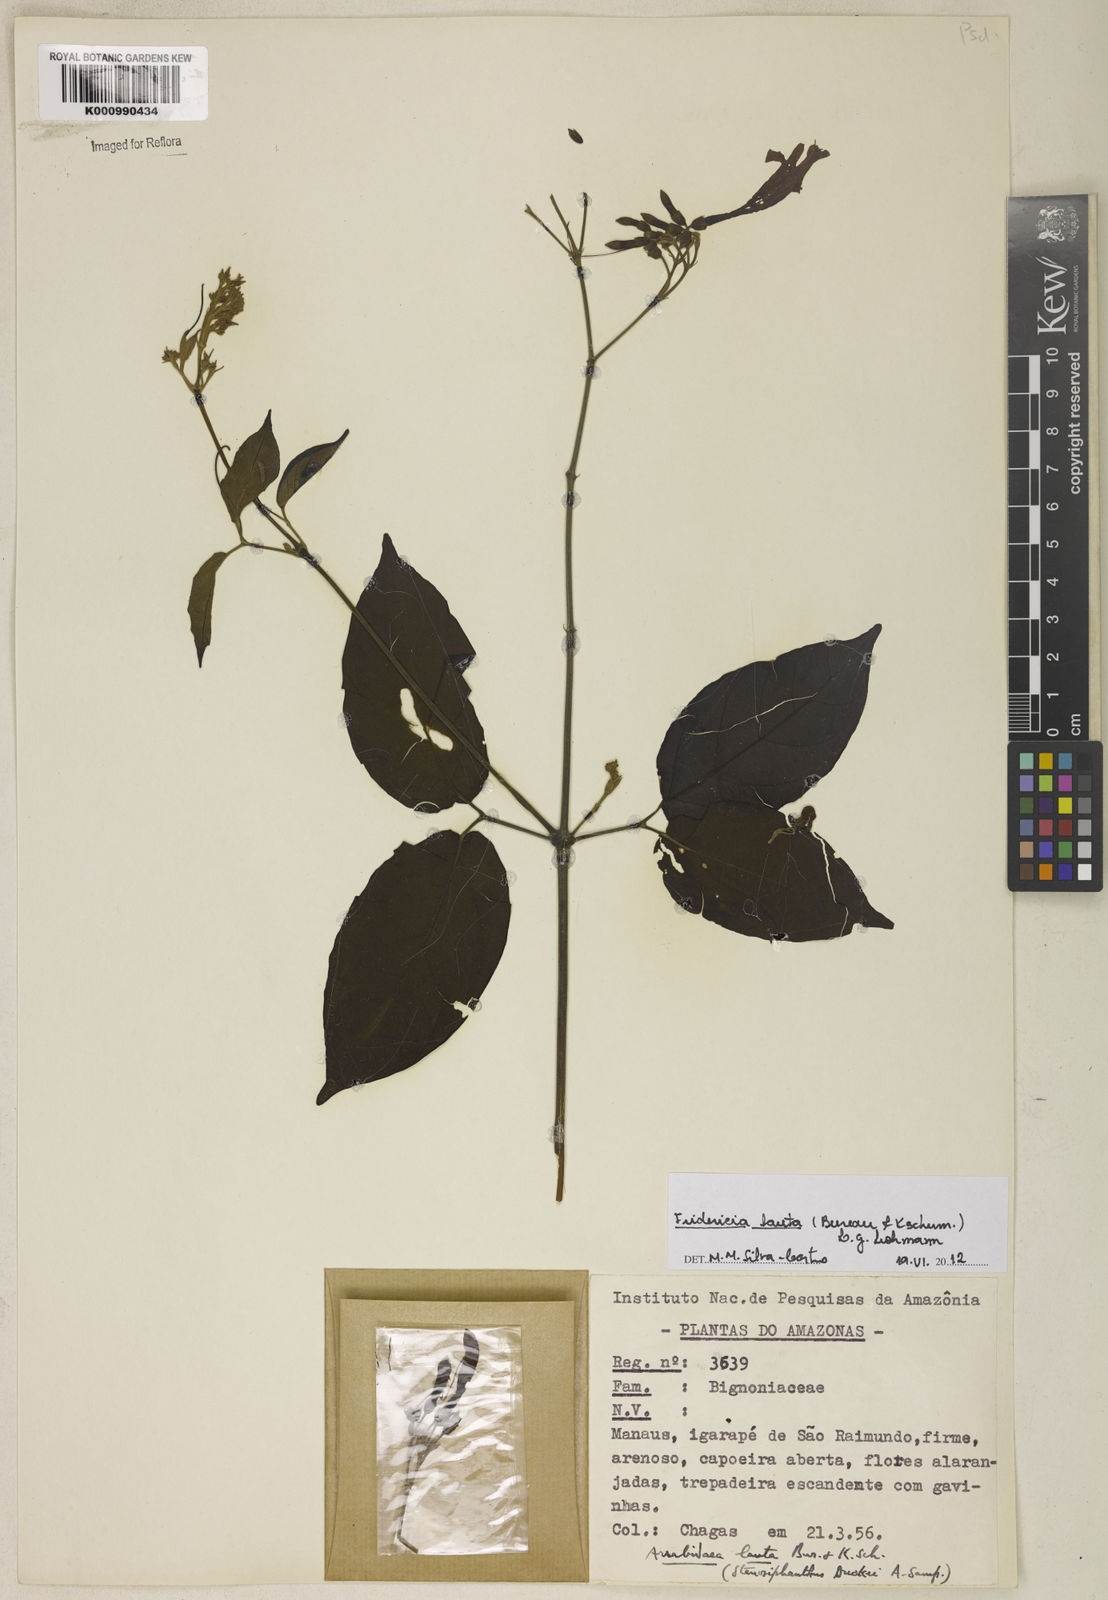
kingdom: Plantae
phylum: Tracheophyta
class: Magnoliopsida
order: Lamiales
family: Bignoniaceae
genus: Fridericia
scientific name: Fridericia lauta
